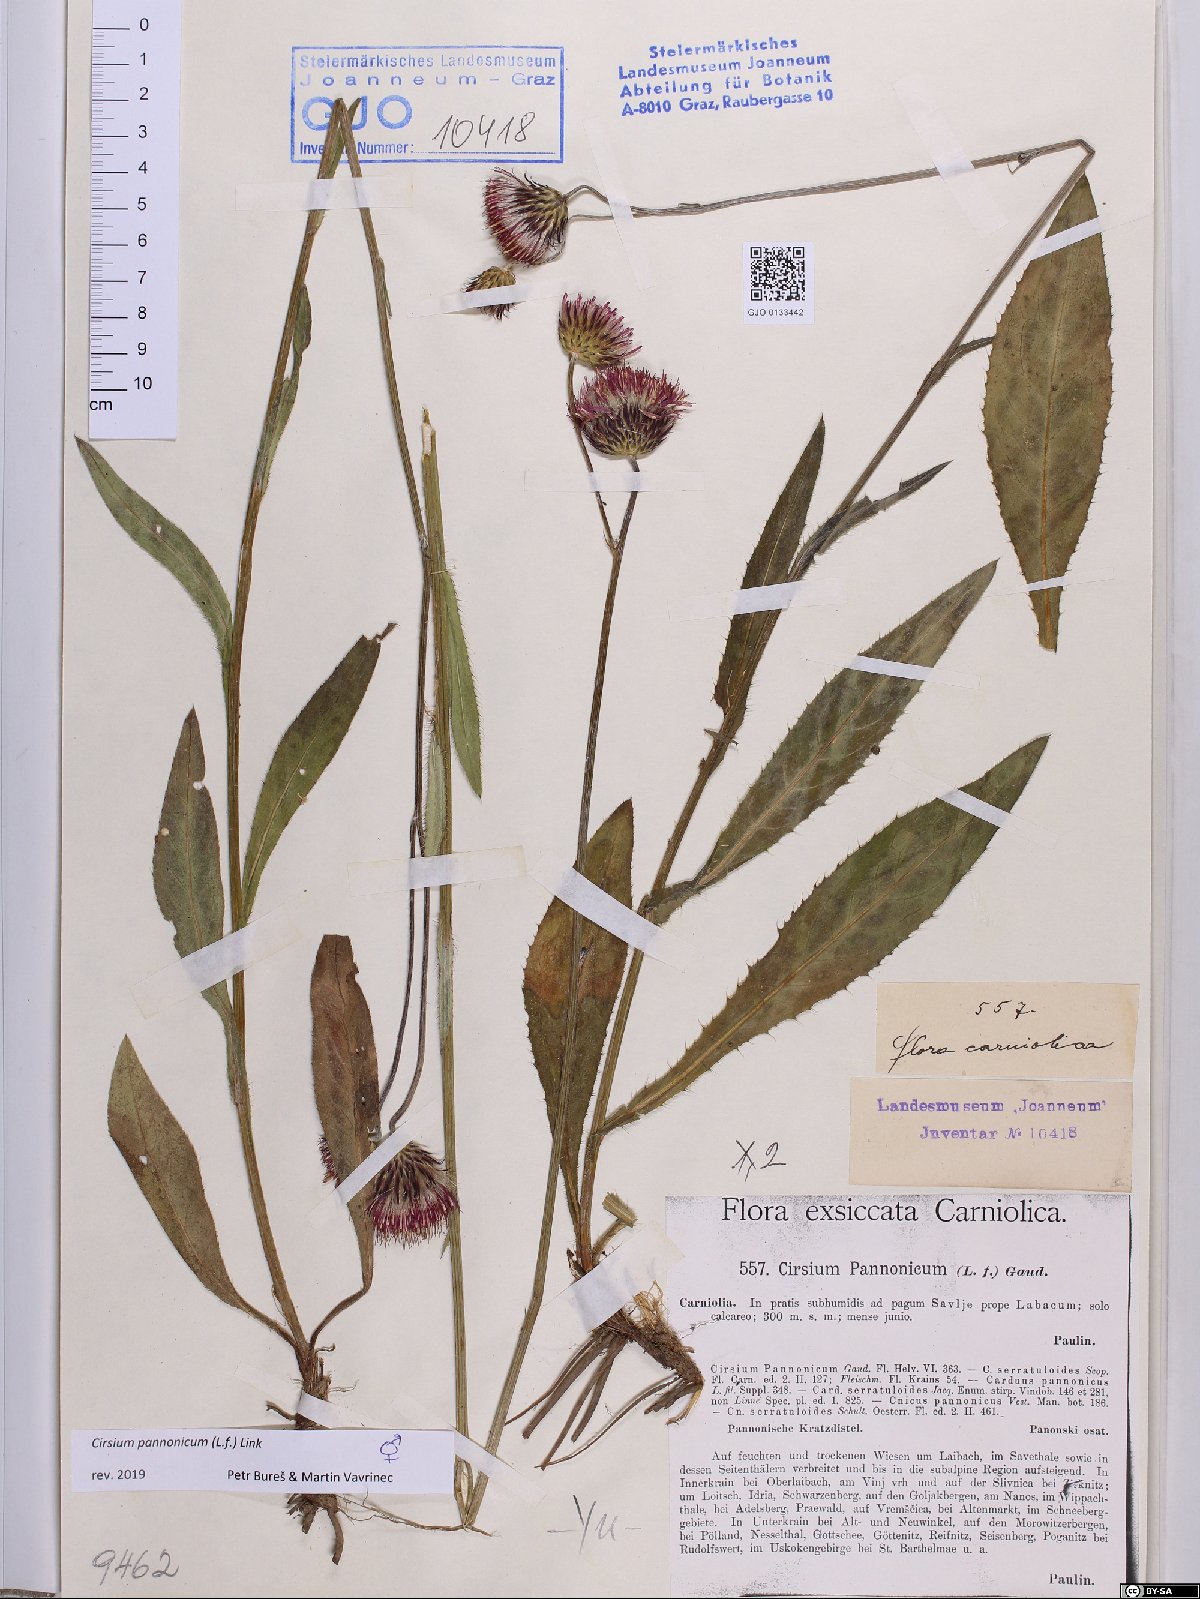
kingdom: Plantae
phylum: Tracheophyta
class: Magnoliopsida
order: Asterales
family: Asteraceae
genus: Cirsium
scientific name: Cirsium pannonicum
